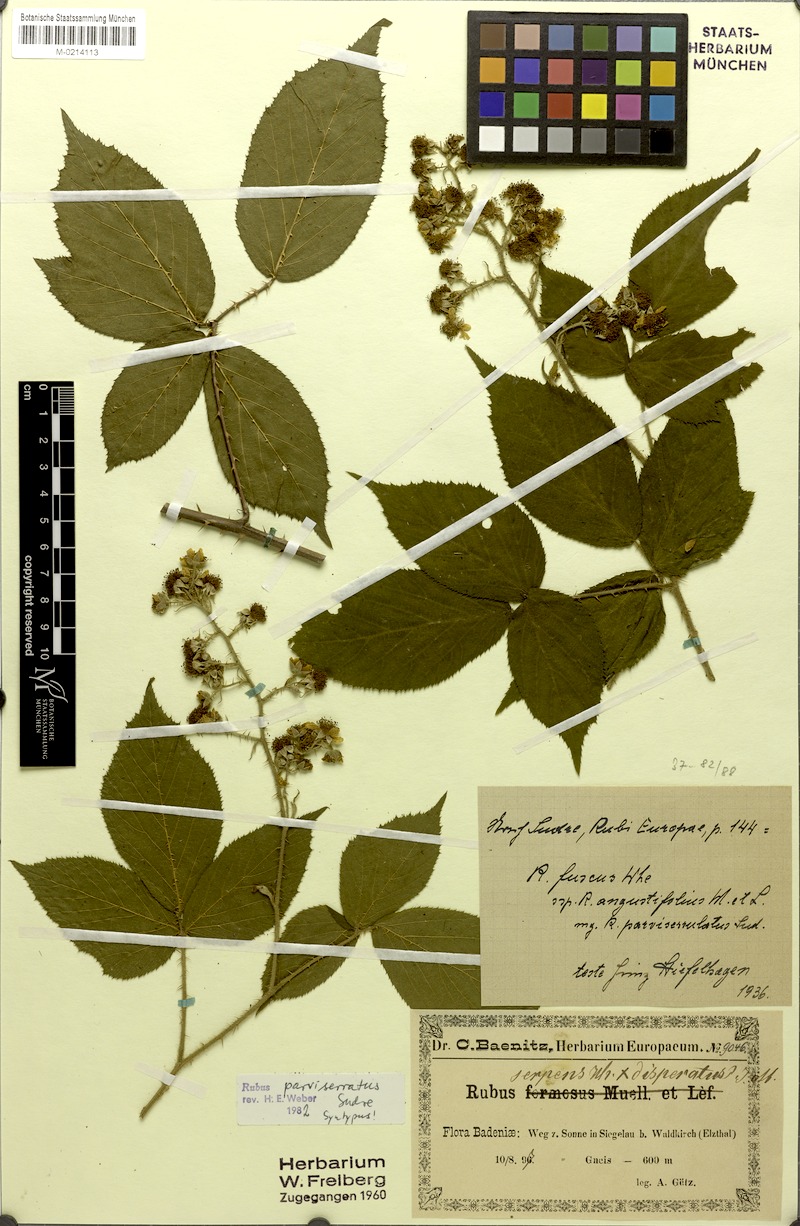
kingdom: Plantae
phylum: Tracheophyta
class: Magnoliopsida
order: Rosales
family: Rosaceae
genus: Rubus
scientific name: Rubus ulmifolius
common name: Elmleaf blackberry
